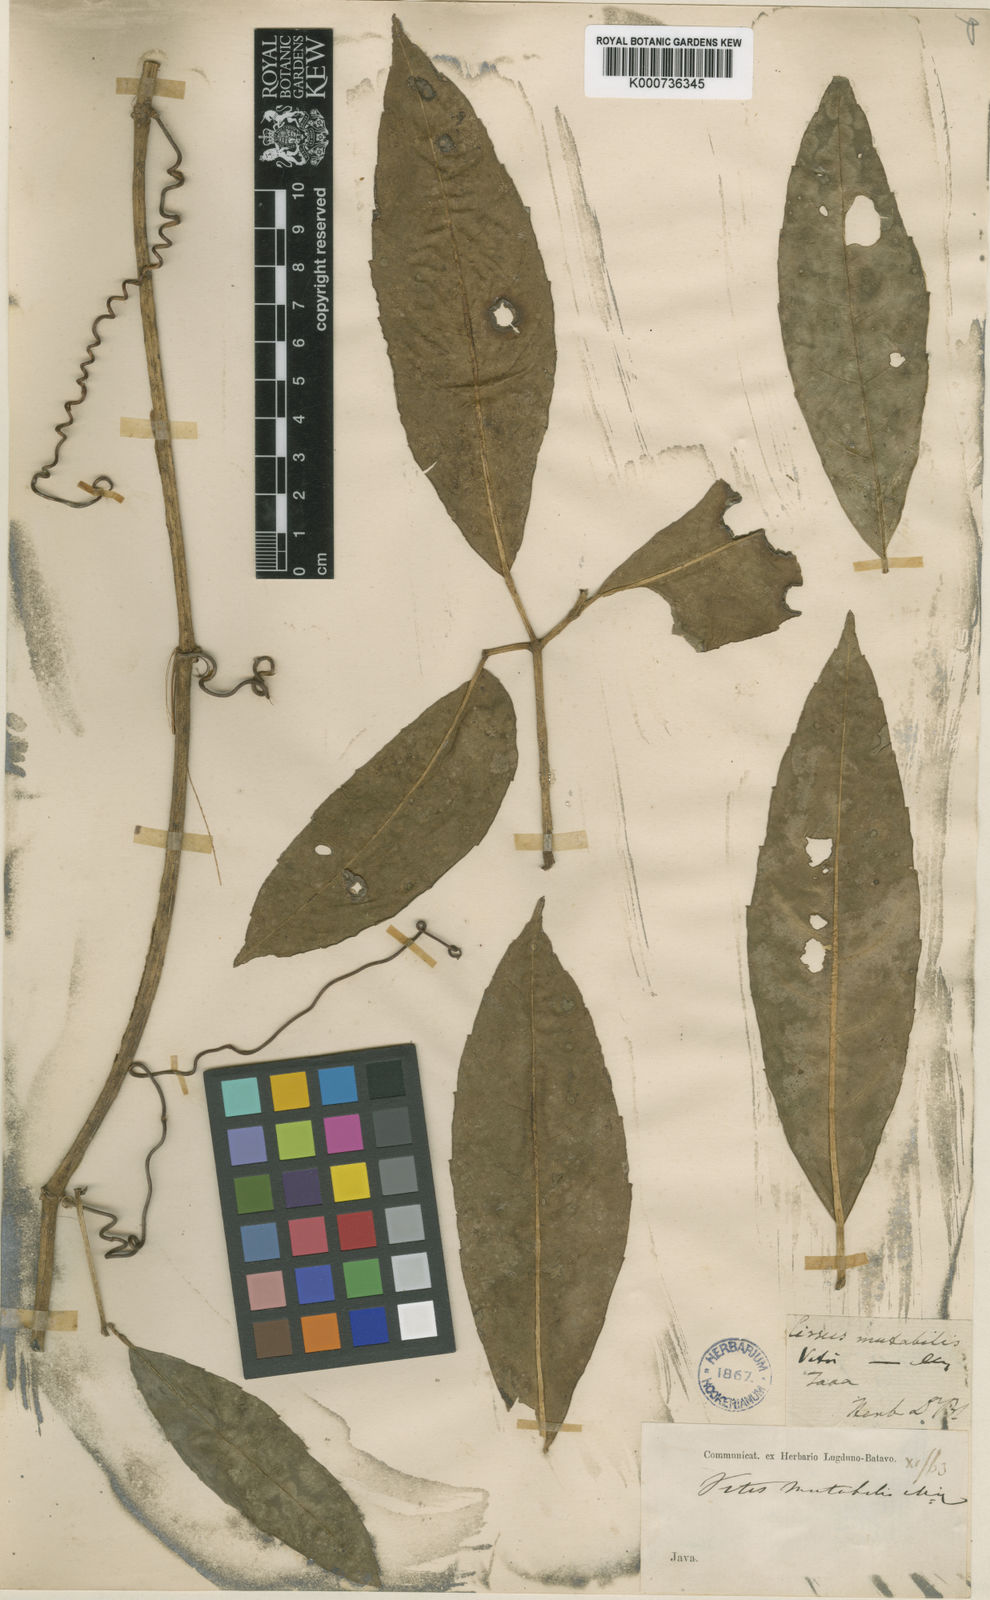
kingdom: Plantae
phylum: Tracheophyta
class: Magnoliopsida
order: Vitales
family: Vitaceae
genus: Tetrastigma
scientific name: Tetrastigma mutabile
